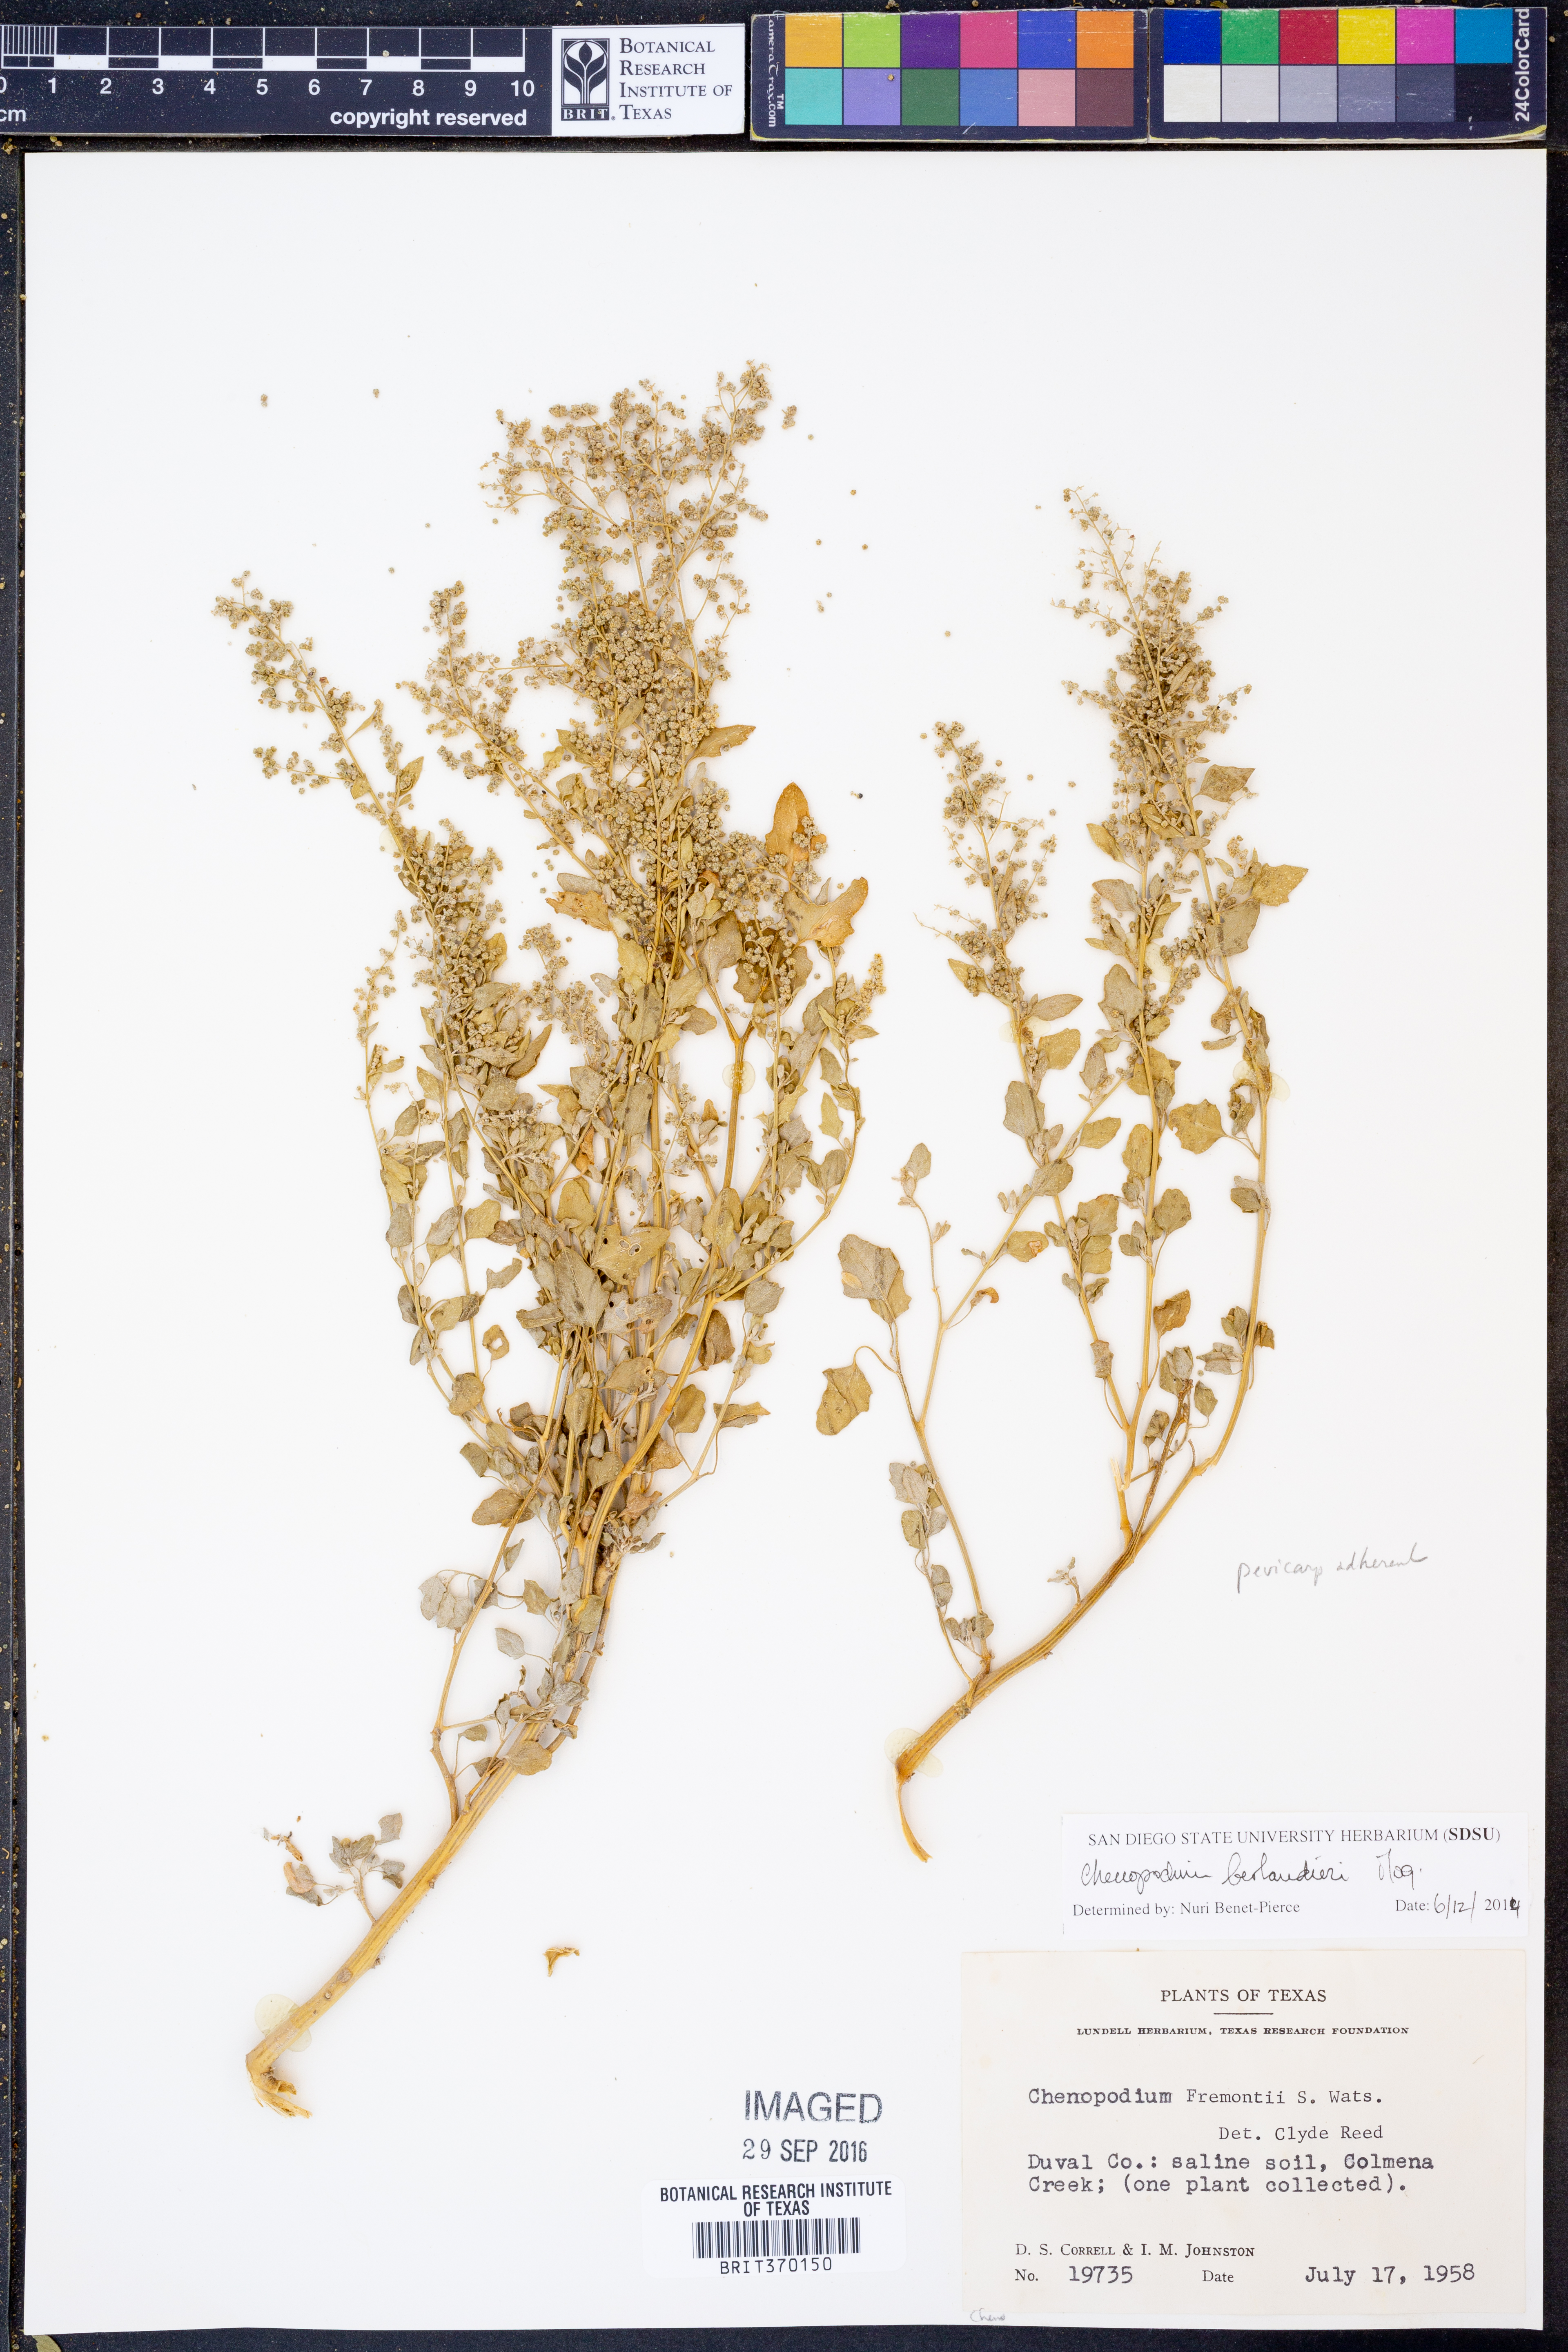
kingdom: Plantae
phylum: Tracheophyta
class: Magnoliopsida
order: Caryophyllales
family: Amaranthaceae
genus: Chenopodium
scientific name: Chenopodium berlandieri
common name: Pit-seed goosefoot
